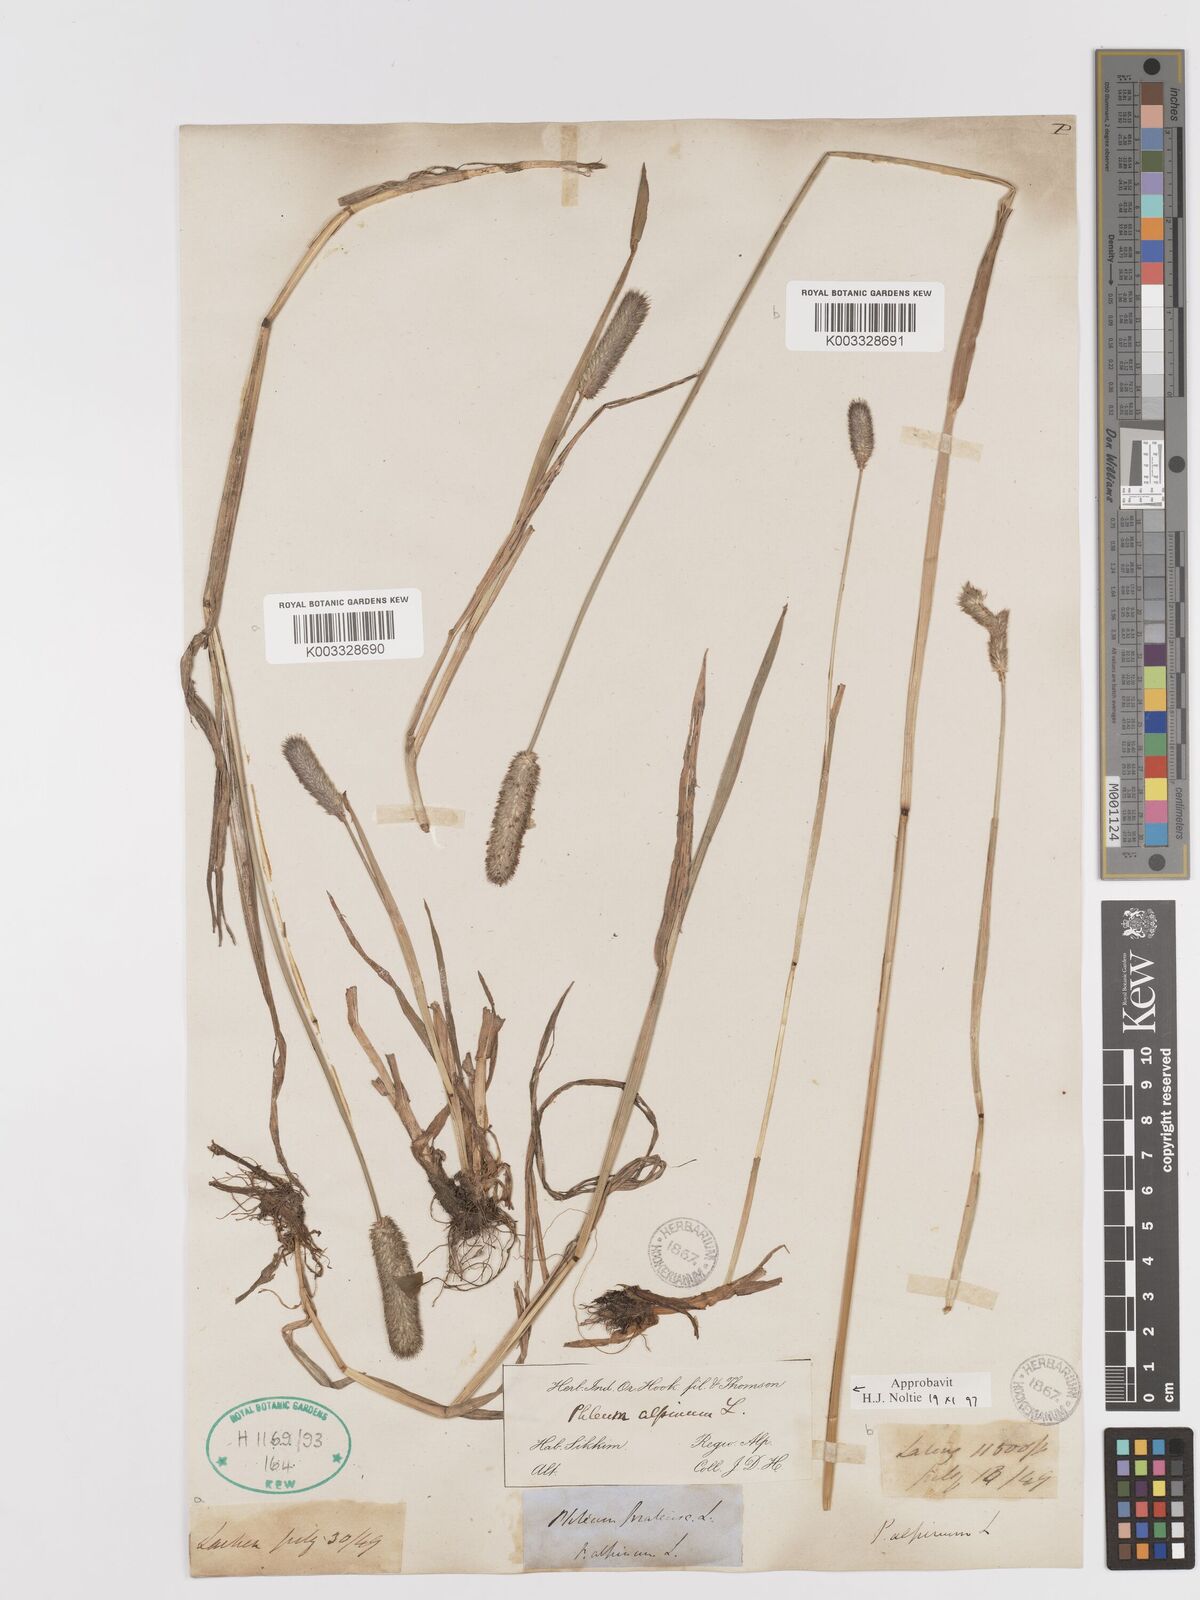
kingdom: Plantae
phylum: Tracheophyta
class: Liliopsida
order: Poales
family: Poaceae
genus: Phleum
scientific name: Phleum alpinum
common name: Alpine cat's-tail
